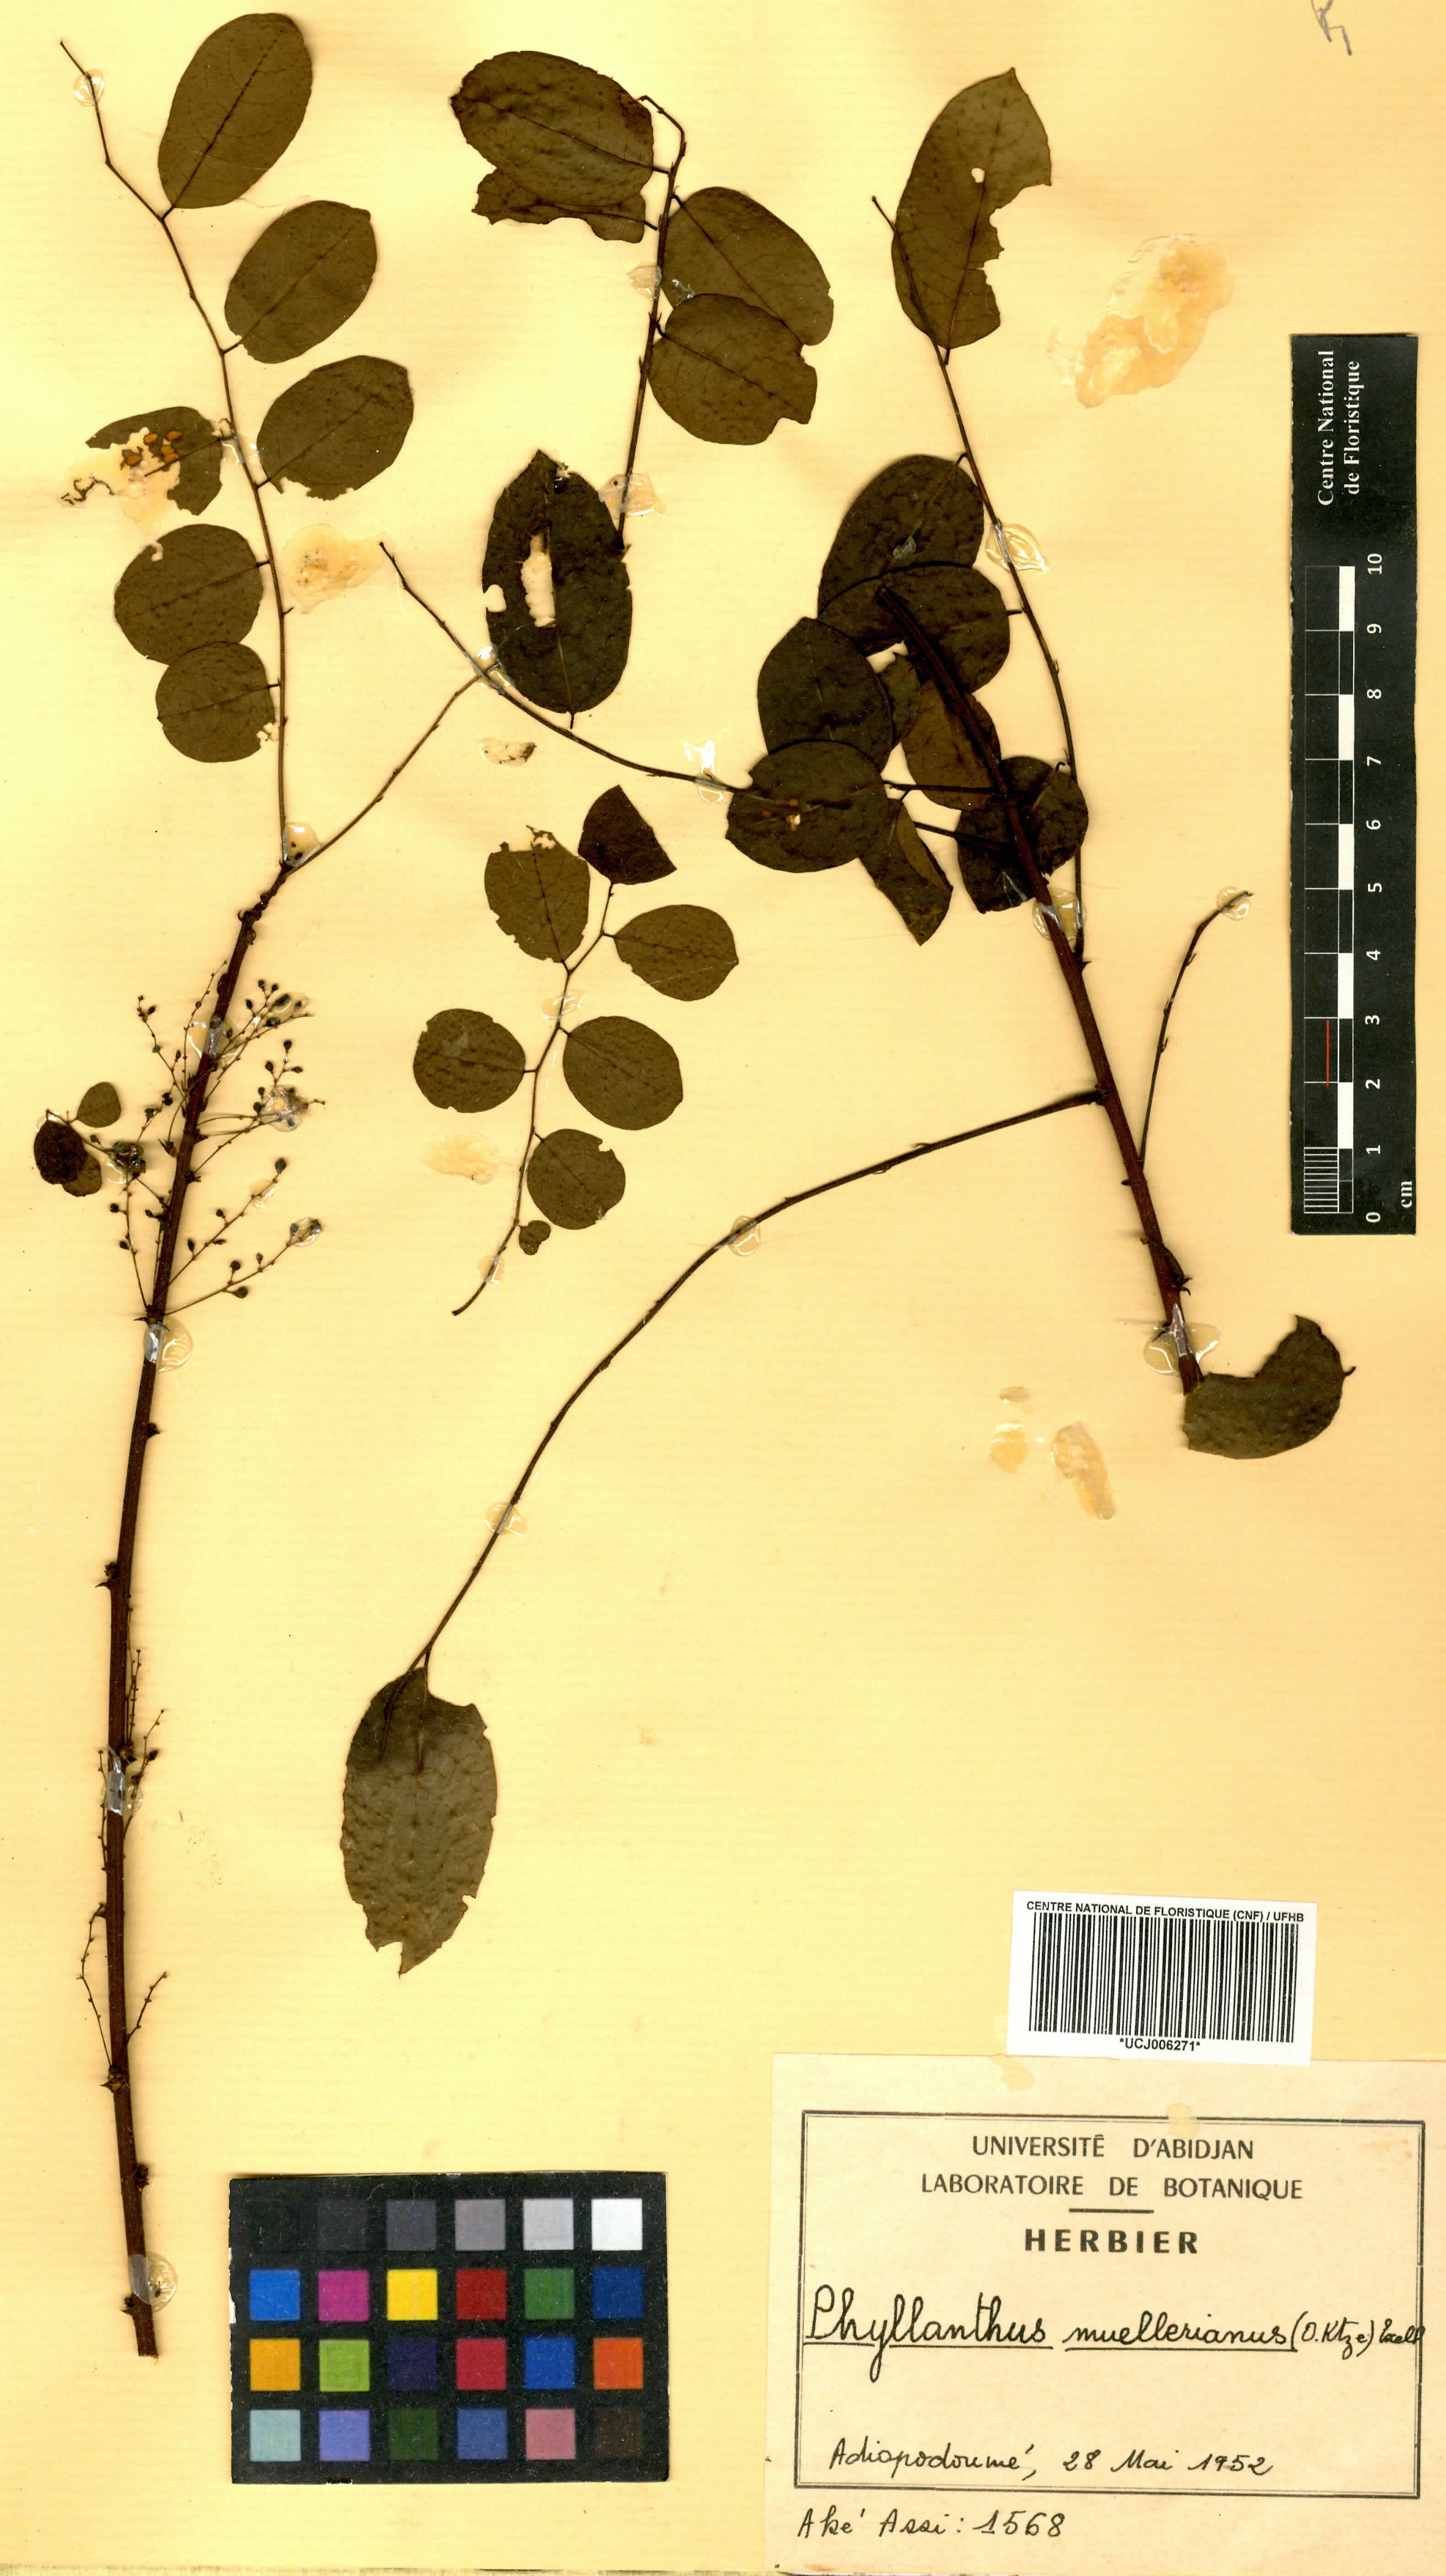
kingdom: Plantae
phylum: Tracheophyta
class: Magnoliopsida
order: Malpighiales
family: Phyllanthaceae
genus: Phyllanthus
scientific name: Phyllanthus muellerianus
